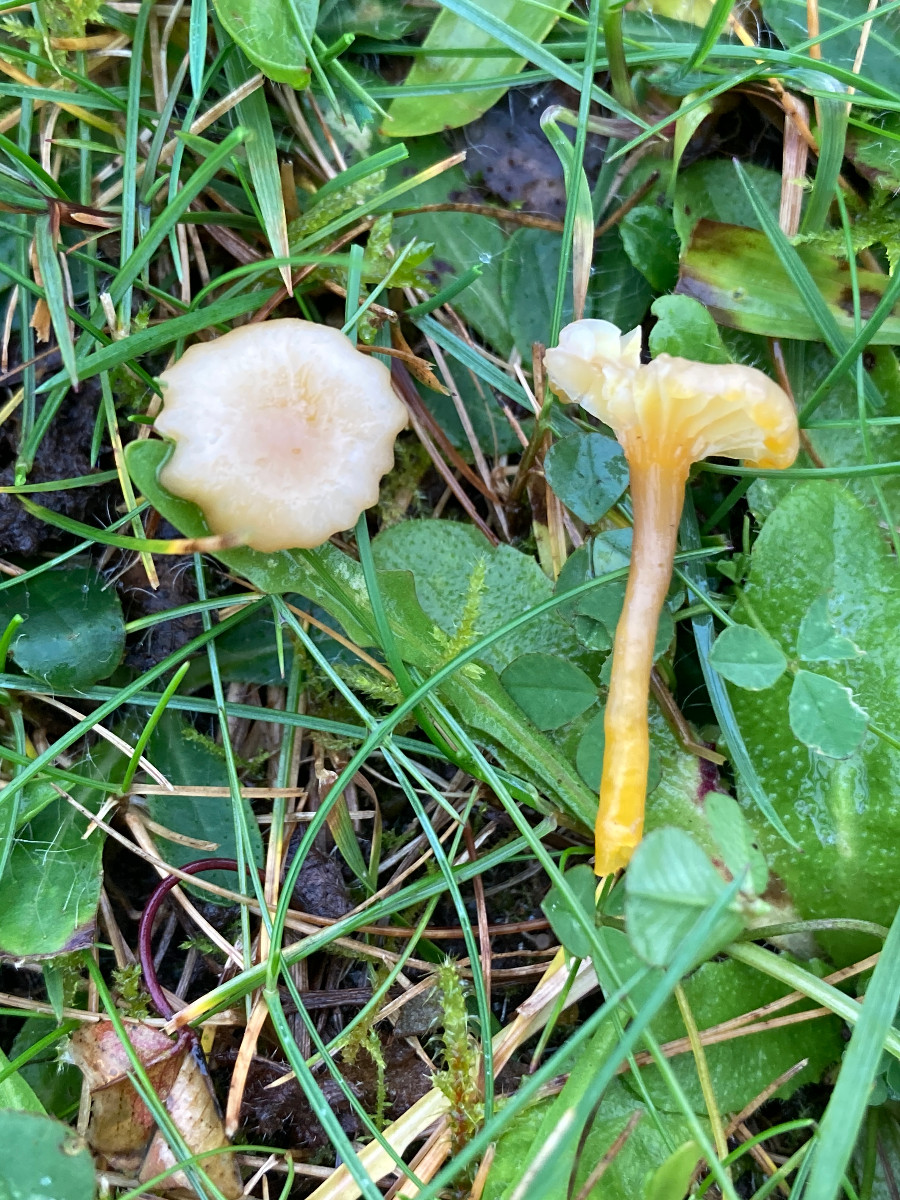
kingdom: Fungi
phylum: Basidiomycota
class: Agaricomycetes
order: Agaricales
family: Hygrophoraceae
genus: Hygrocybe
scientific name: Hygrocybe cantharellus
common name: kantarel-vokshat
